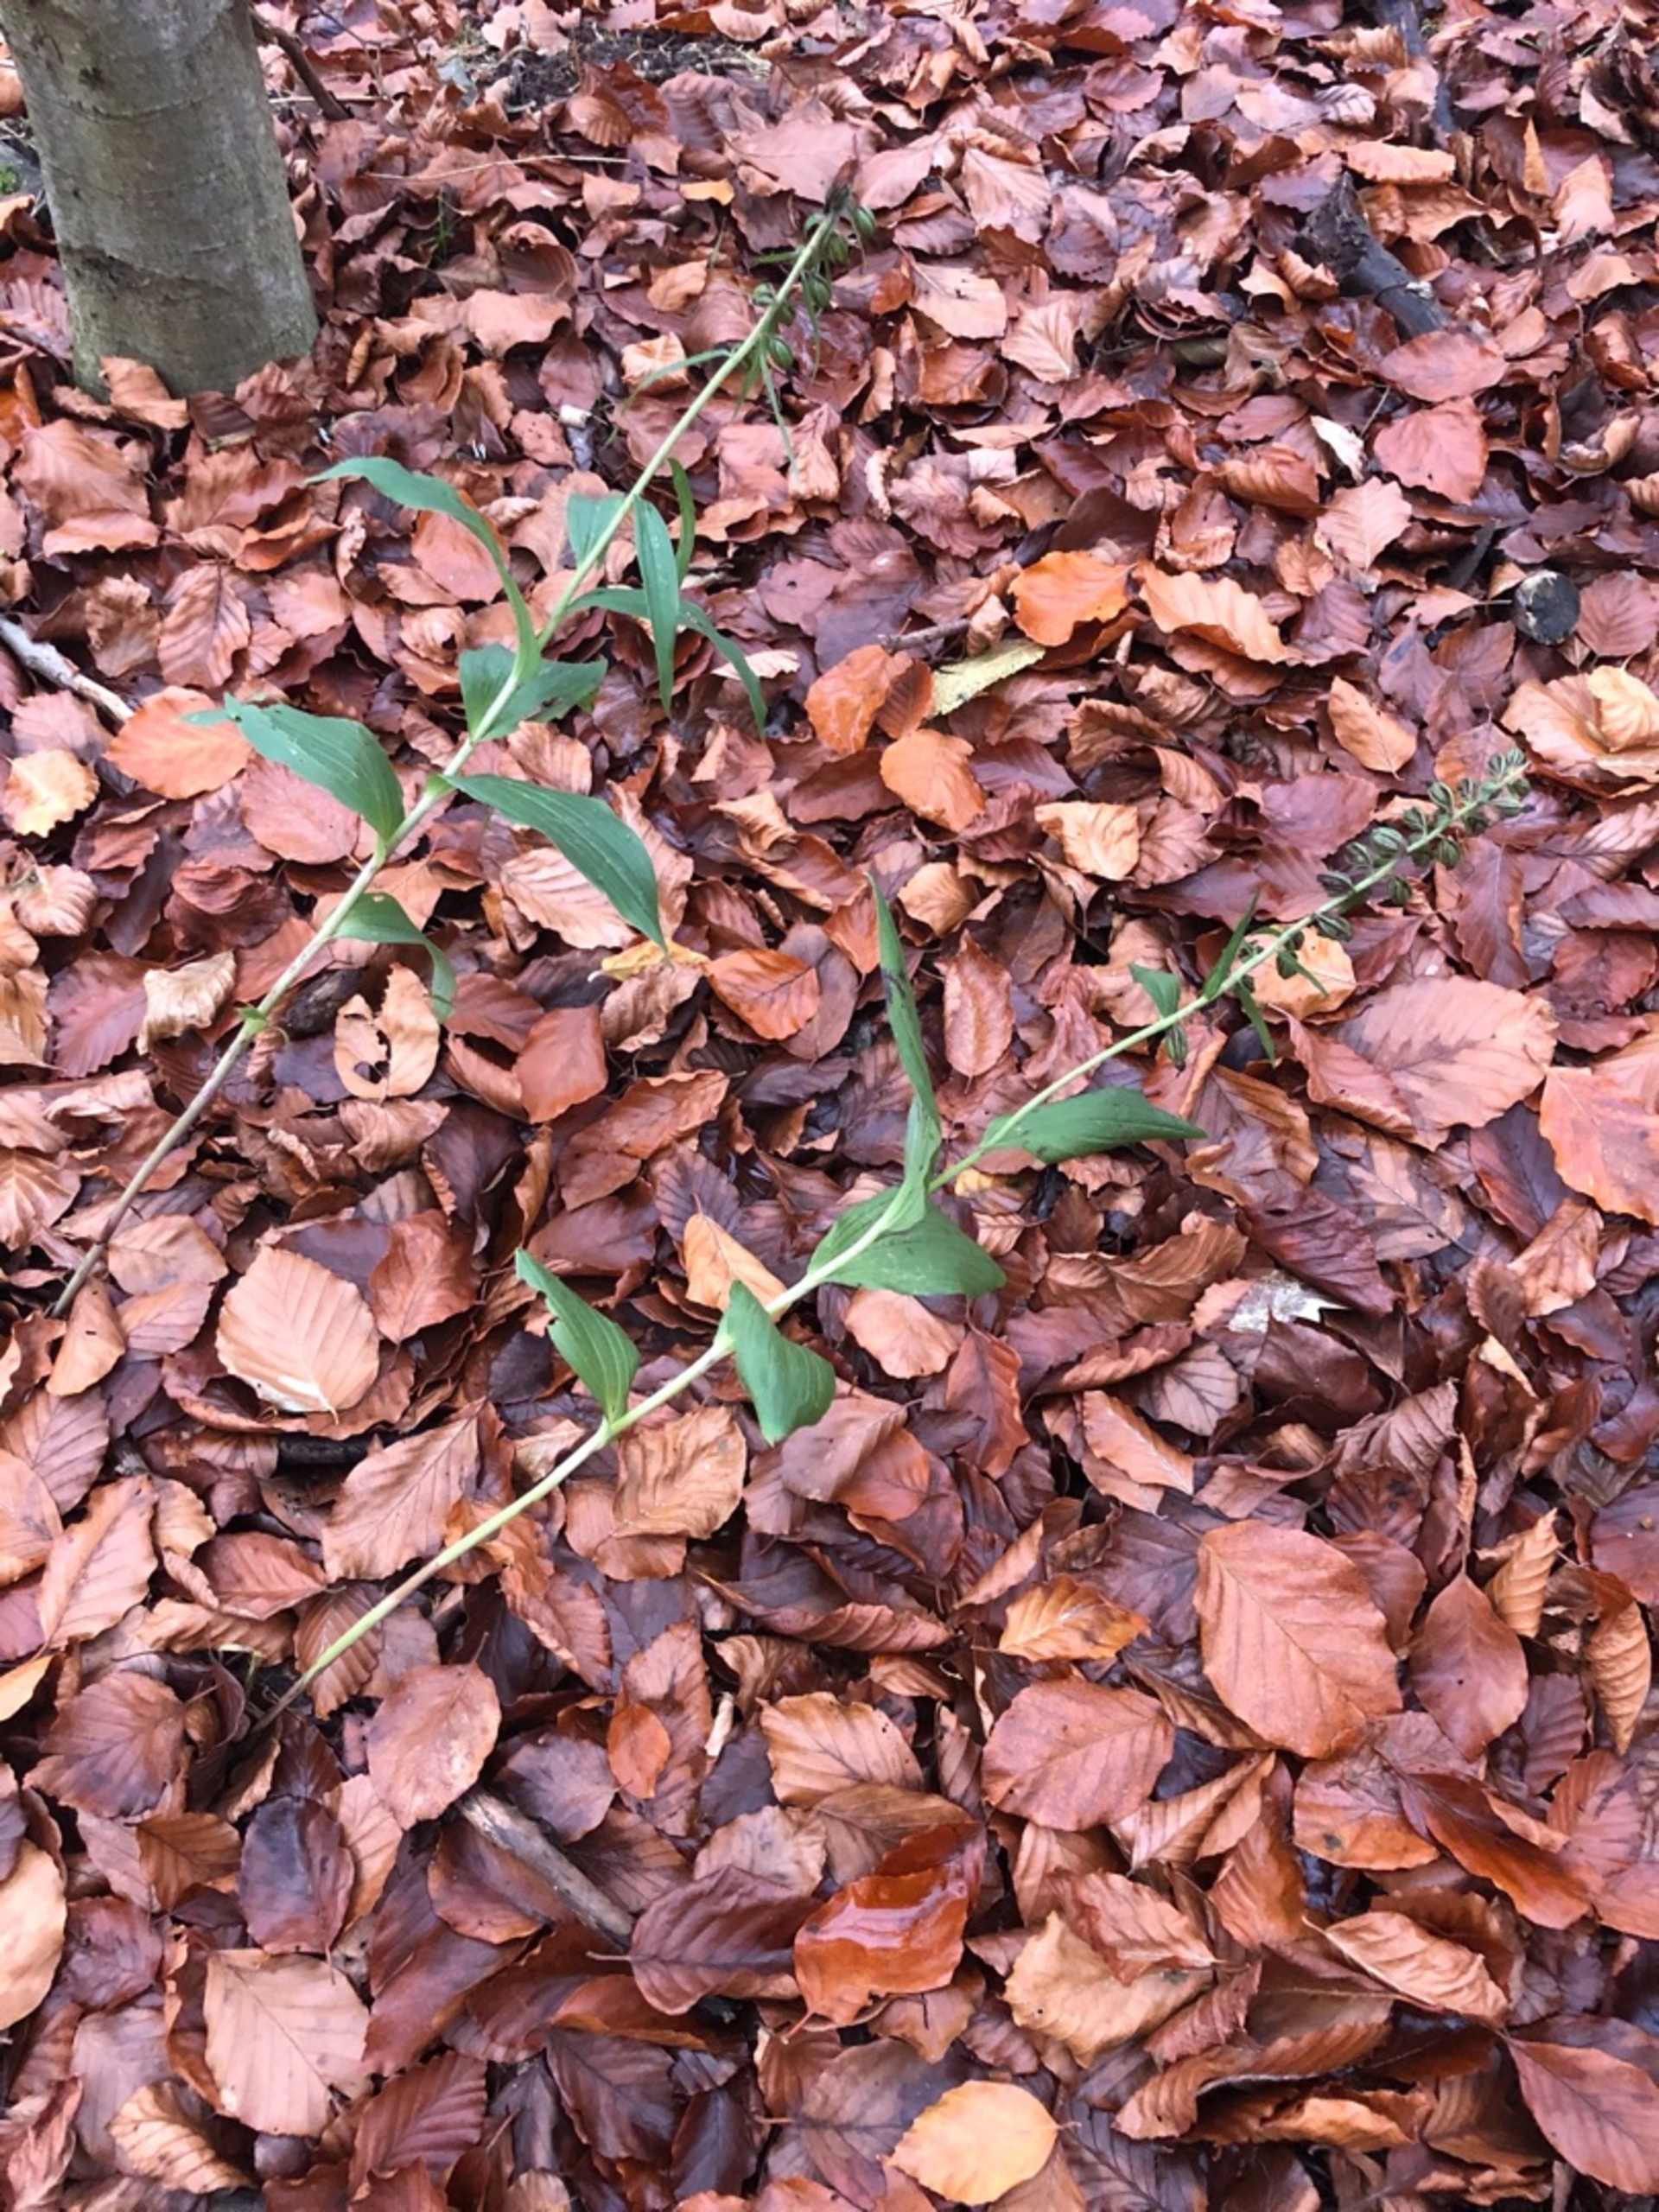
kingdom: Plantae
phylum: Tracheophyta
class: Liliopsida
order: Asparagales
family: Orchidaceae
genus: Epipactis
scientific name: Epipactis helleborine
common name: Skov-hullæbe
